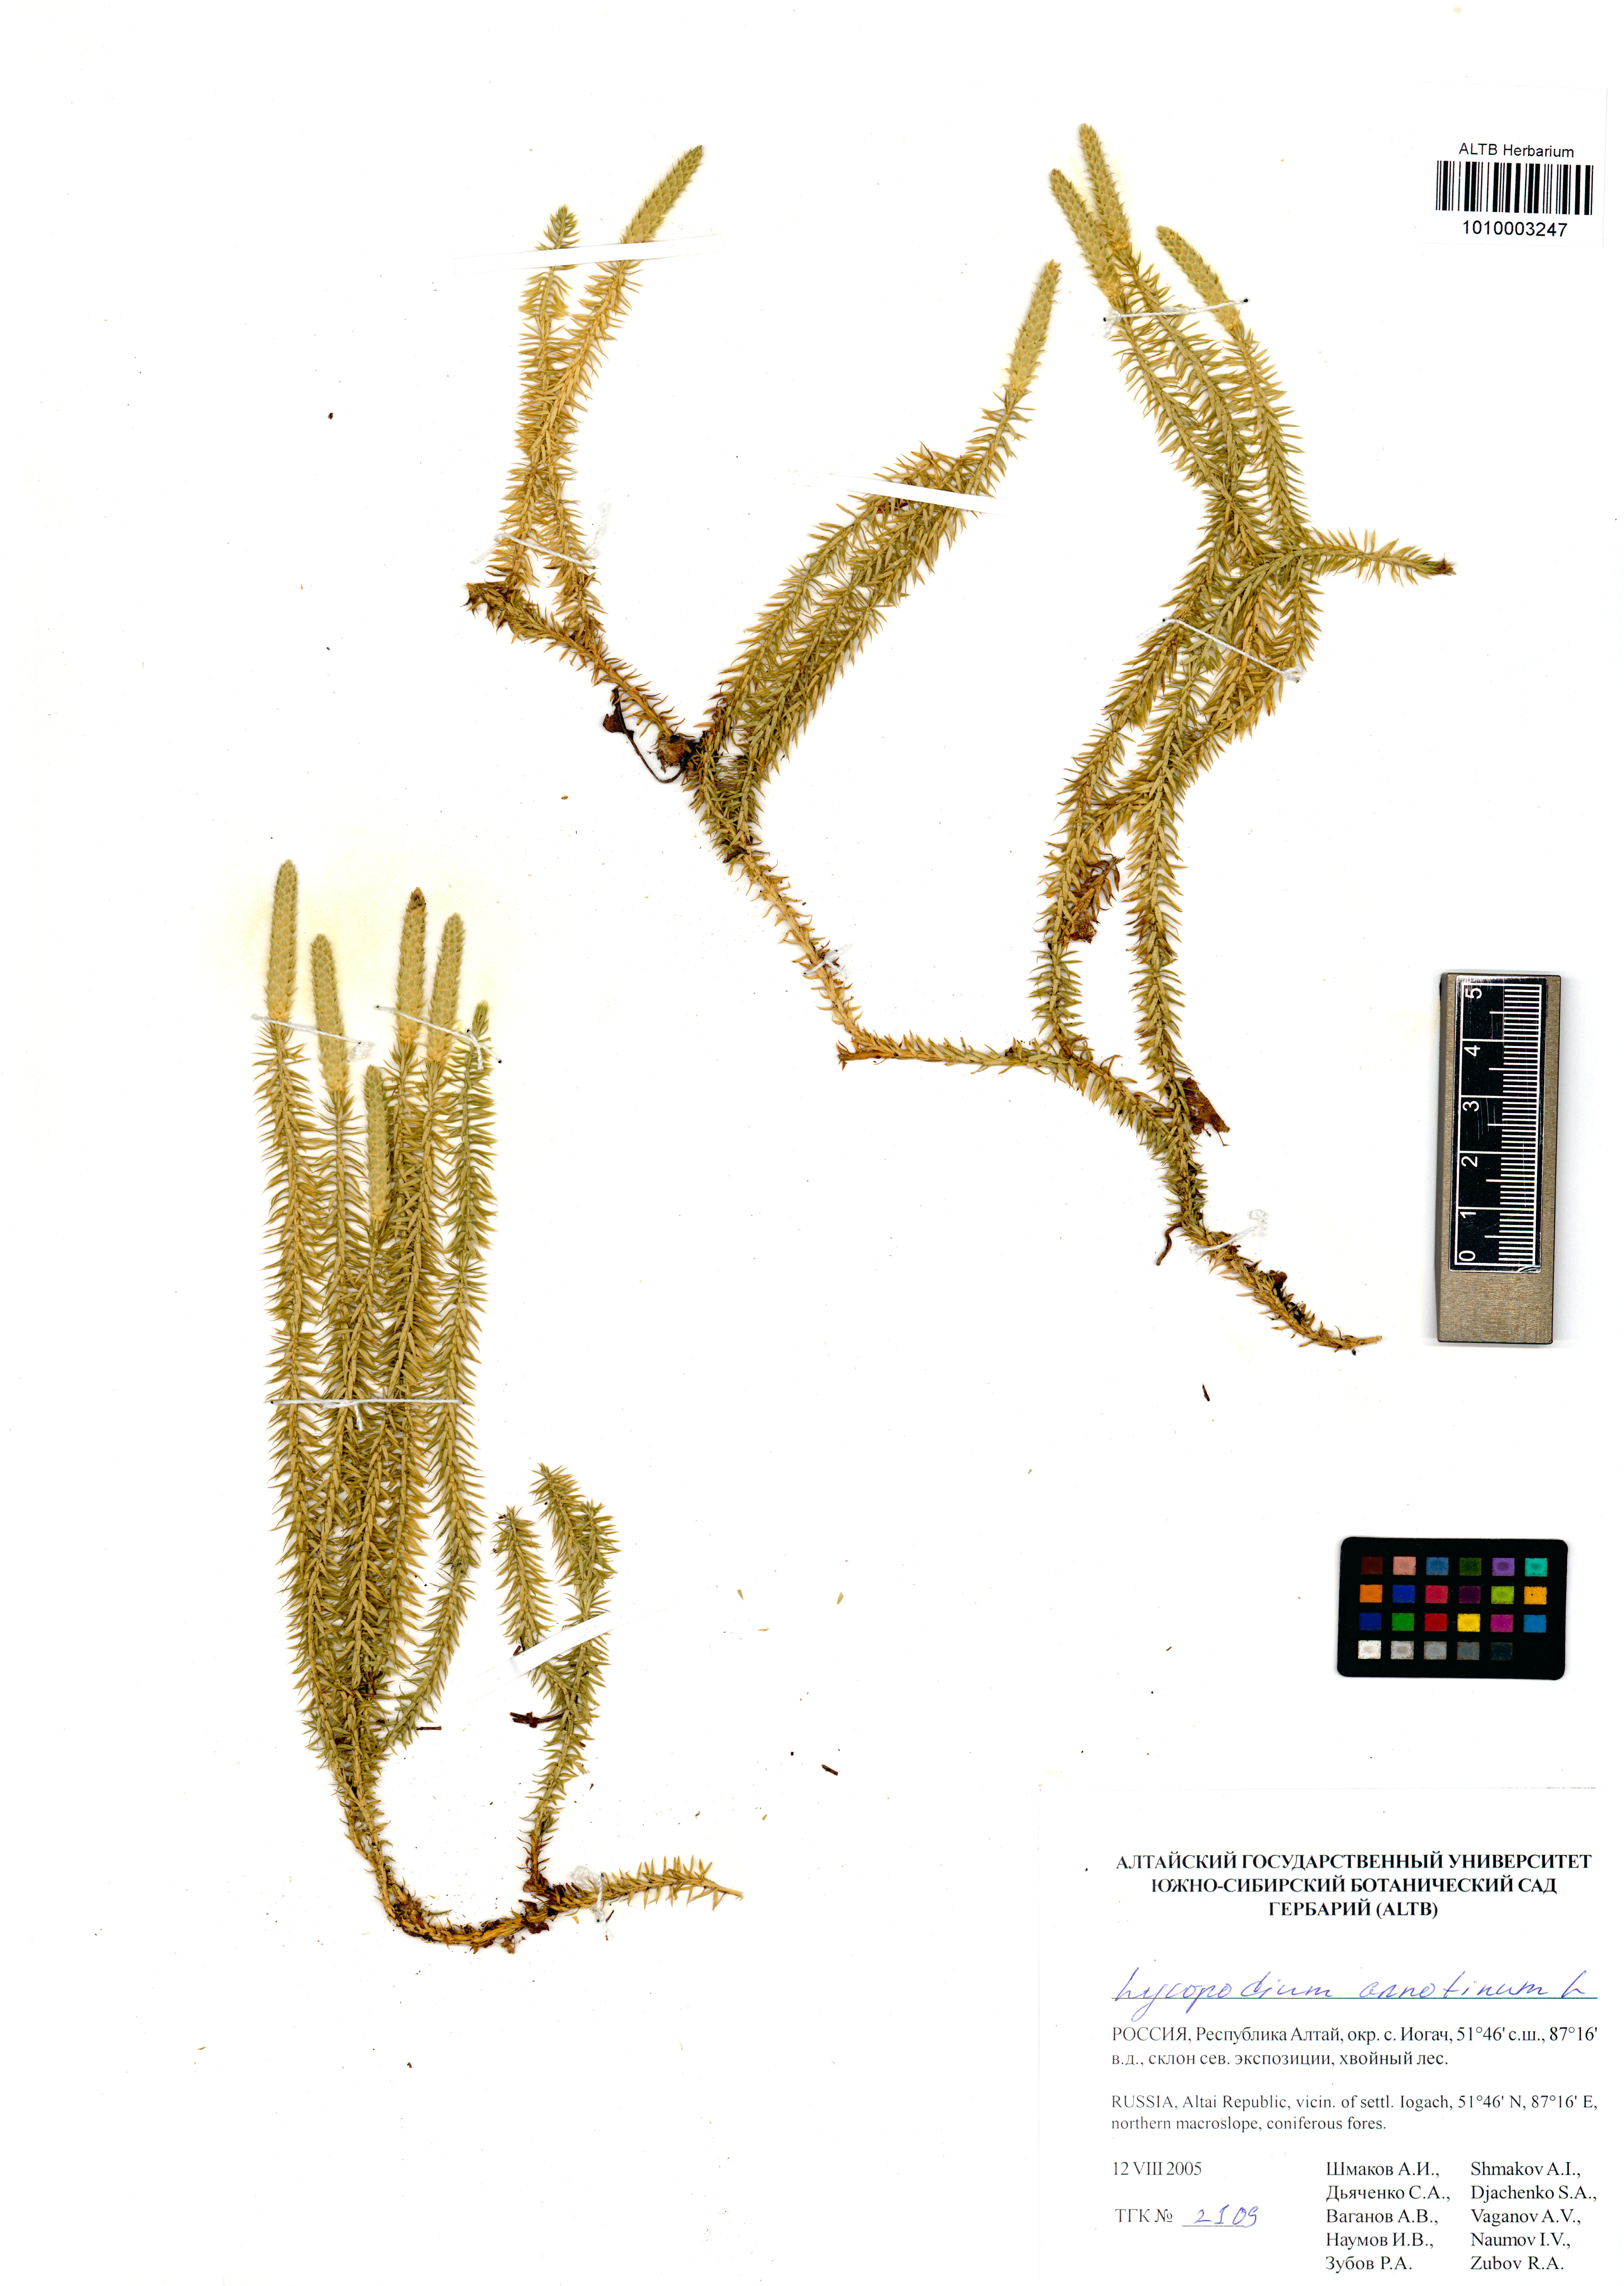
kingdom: Plantae
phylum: Tracheophyta
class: Lycopodiopsida
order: Lycopodiales
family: Lycopodiaceae
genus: Spinulum
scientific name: Spinulum annotinum
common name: Interrupted club-moss
